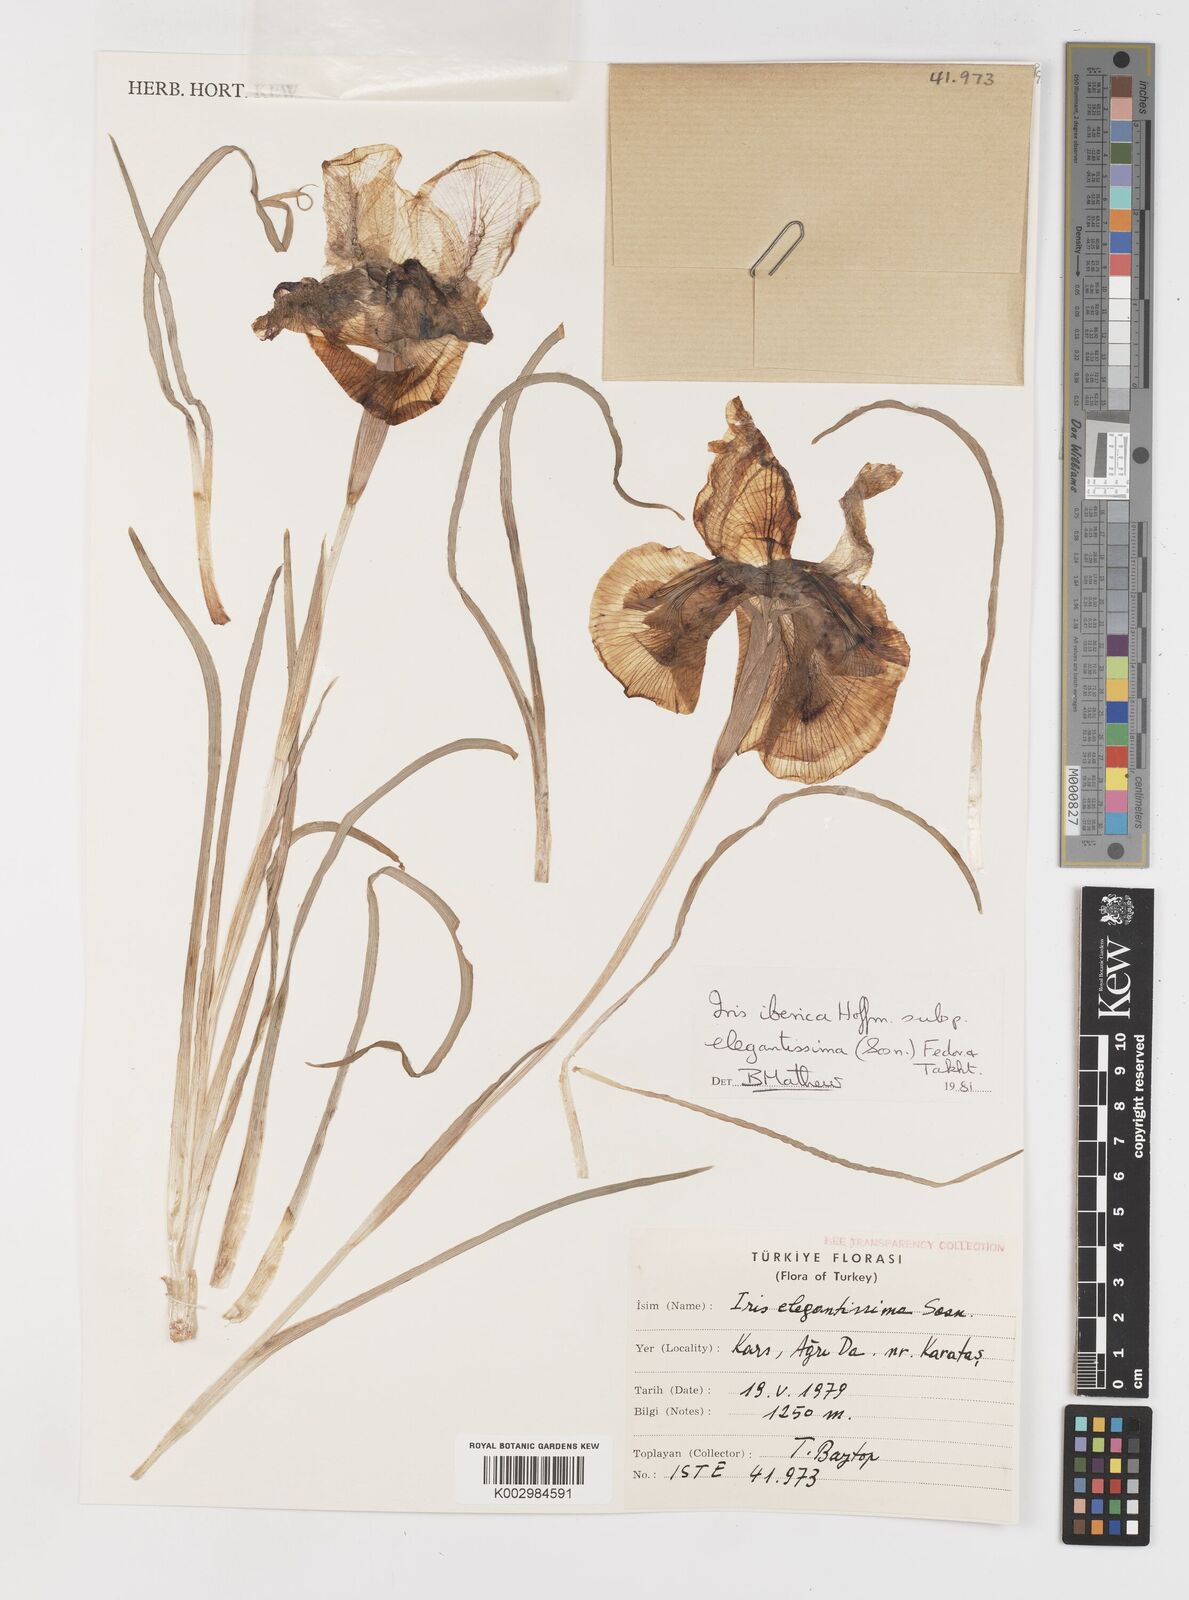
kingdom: Plantae
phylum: Tracheophyta
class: Liliopsida
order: Asparagales
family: Iridaceae
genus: Iris
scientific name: Iris iberica
